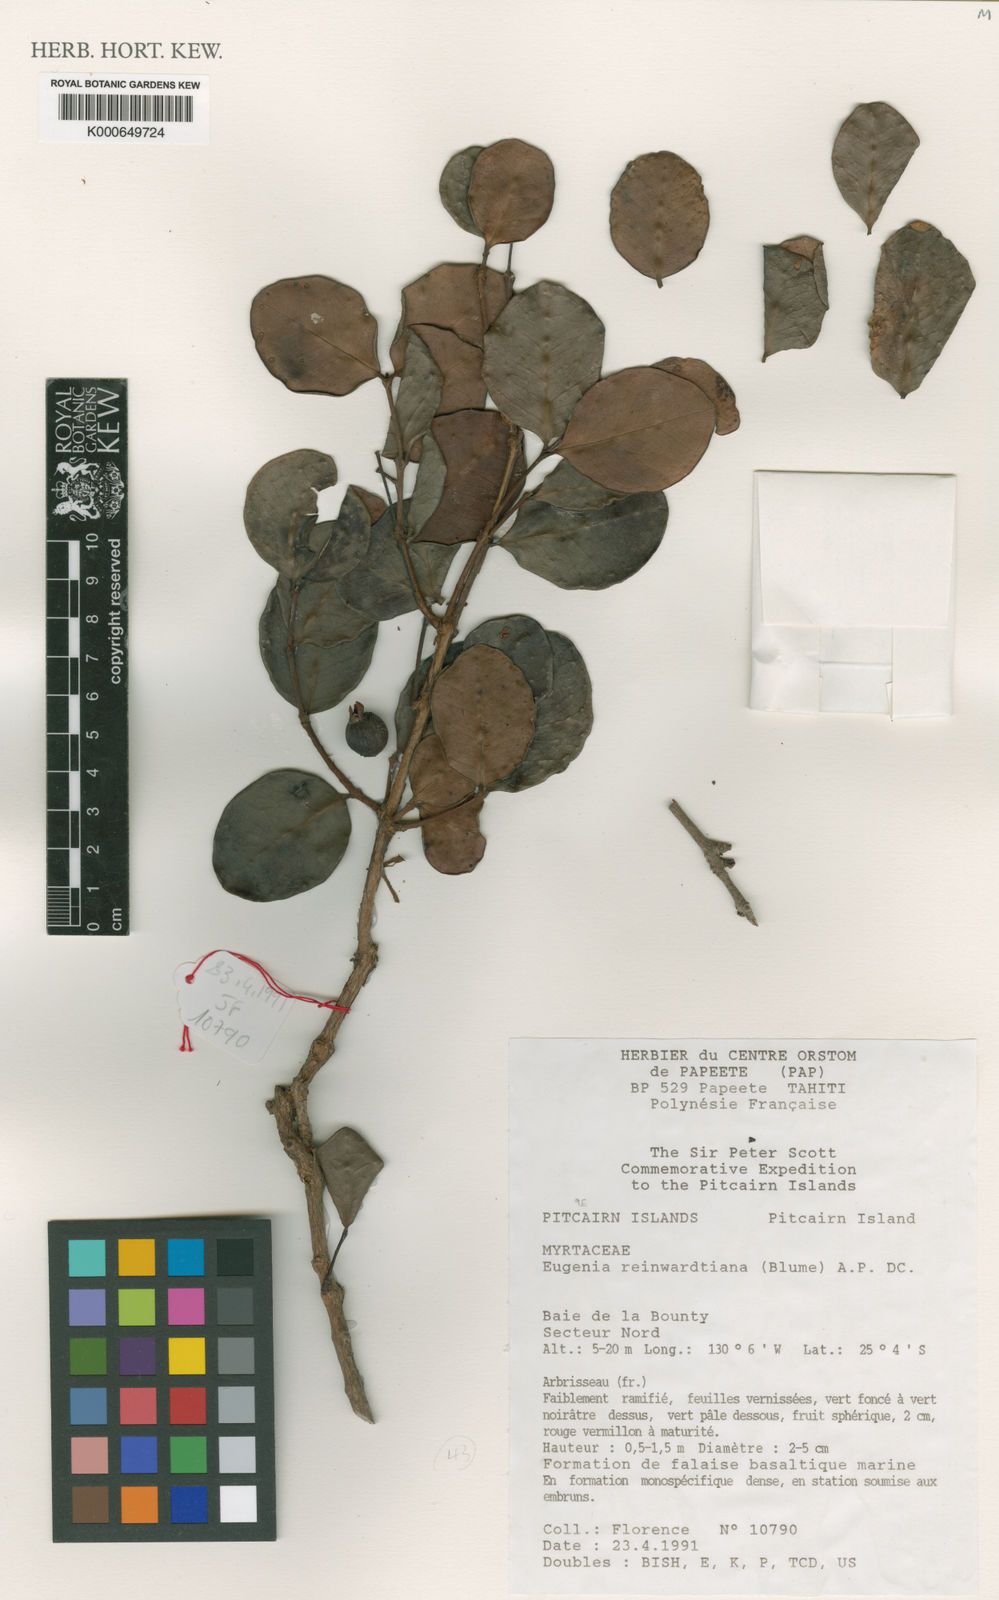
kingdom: Plantae
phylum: Tracheophyta
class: Magnoliopsida
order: Myrtales
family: Myrtaceae
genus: Eugenia
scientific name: Eugenia uniflora
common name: Surinam cherry
